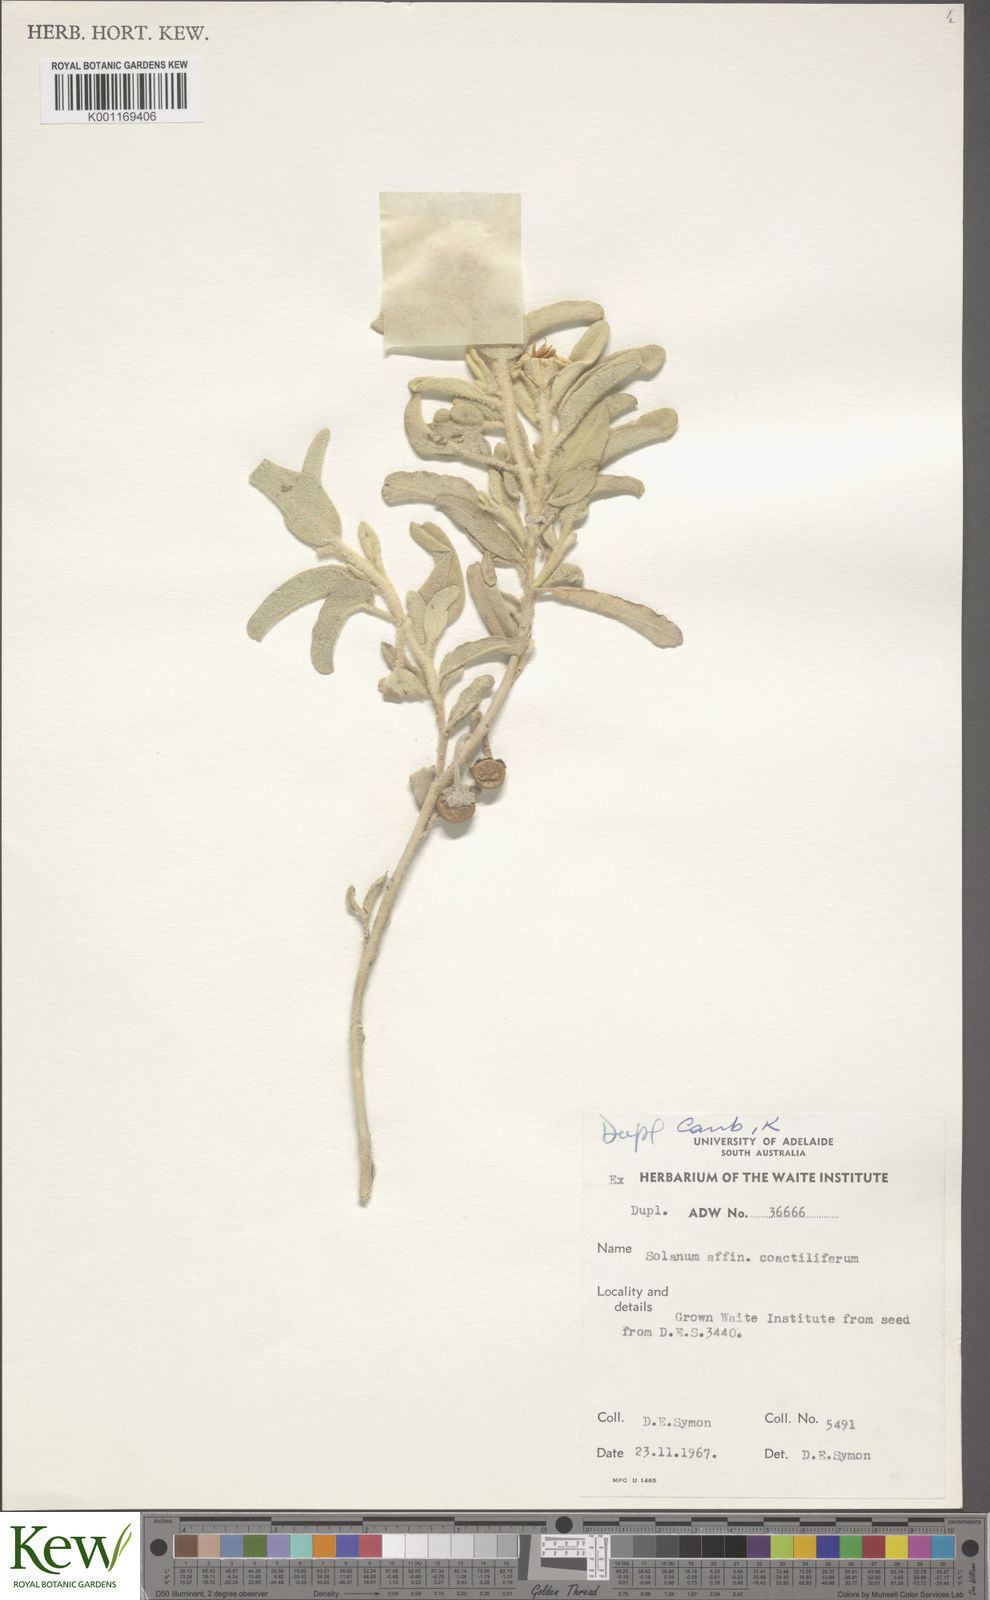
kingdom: Plantae
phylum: Tracheophyta
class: Magnoliopsida
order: Solanales
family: Solanaceae
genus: Solanum
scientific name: Solanum coactiliferum
